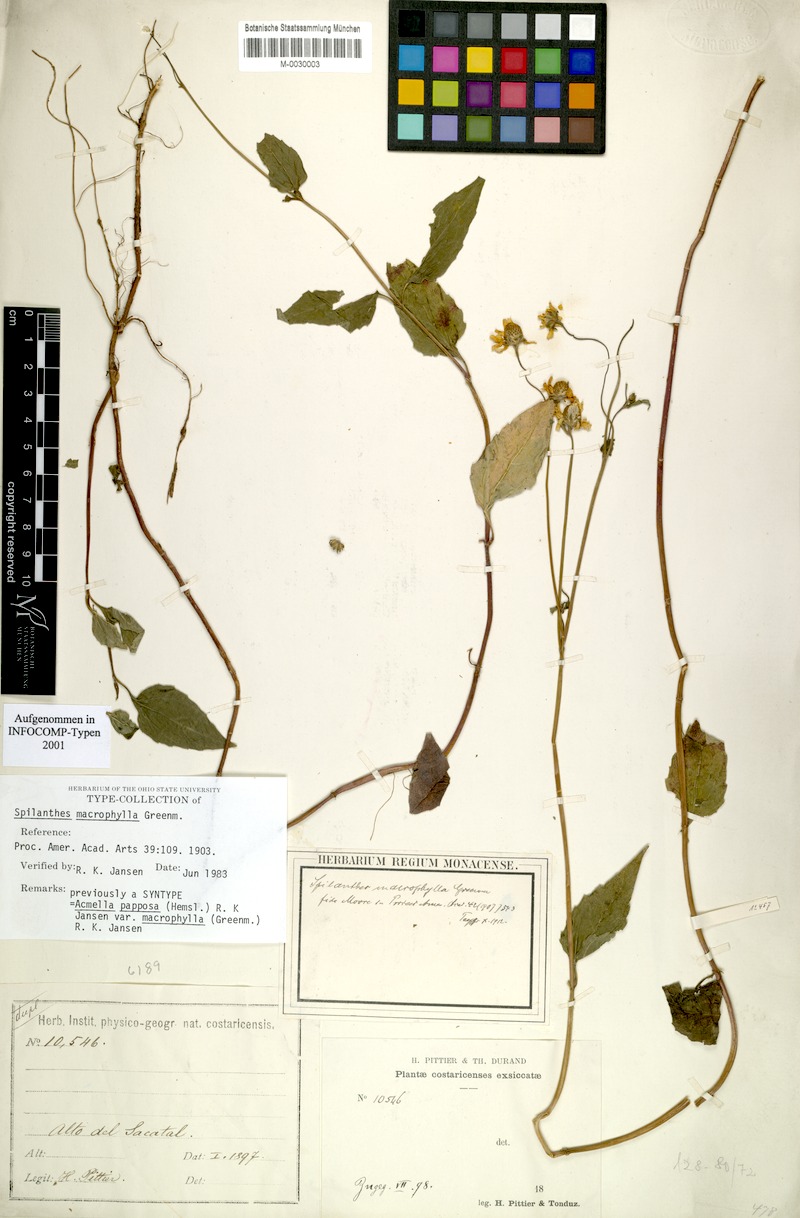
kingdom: Plantae
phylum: Tracheophyta
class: Magnoliopsida
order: Asterales
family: Asteraceae
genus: Acmella
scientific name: Acmella papposa
